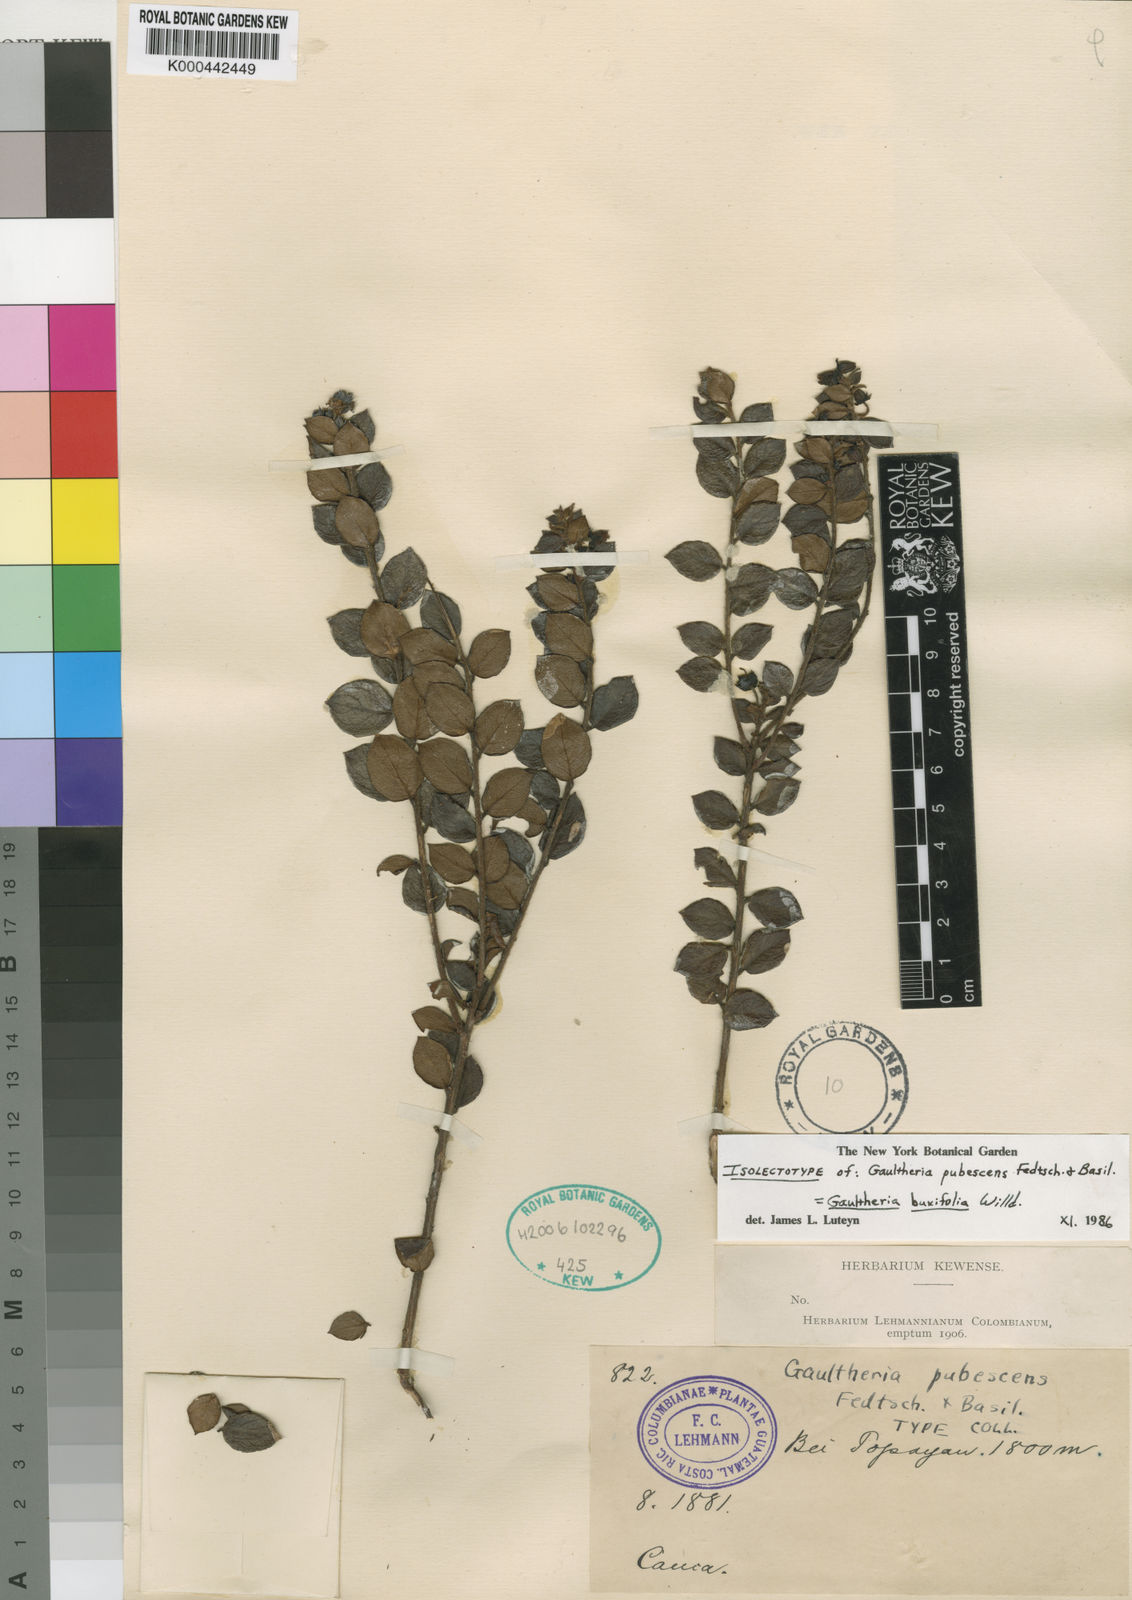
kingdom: Plantae
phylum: Tracheophyta
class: Magnoliopsida
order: Ericales
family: Ericaceae
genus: Gaultheria
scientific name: Gaultheria buxifolia
